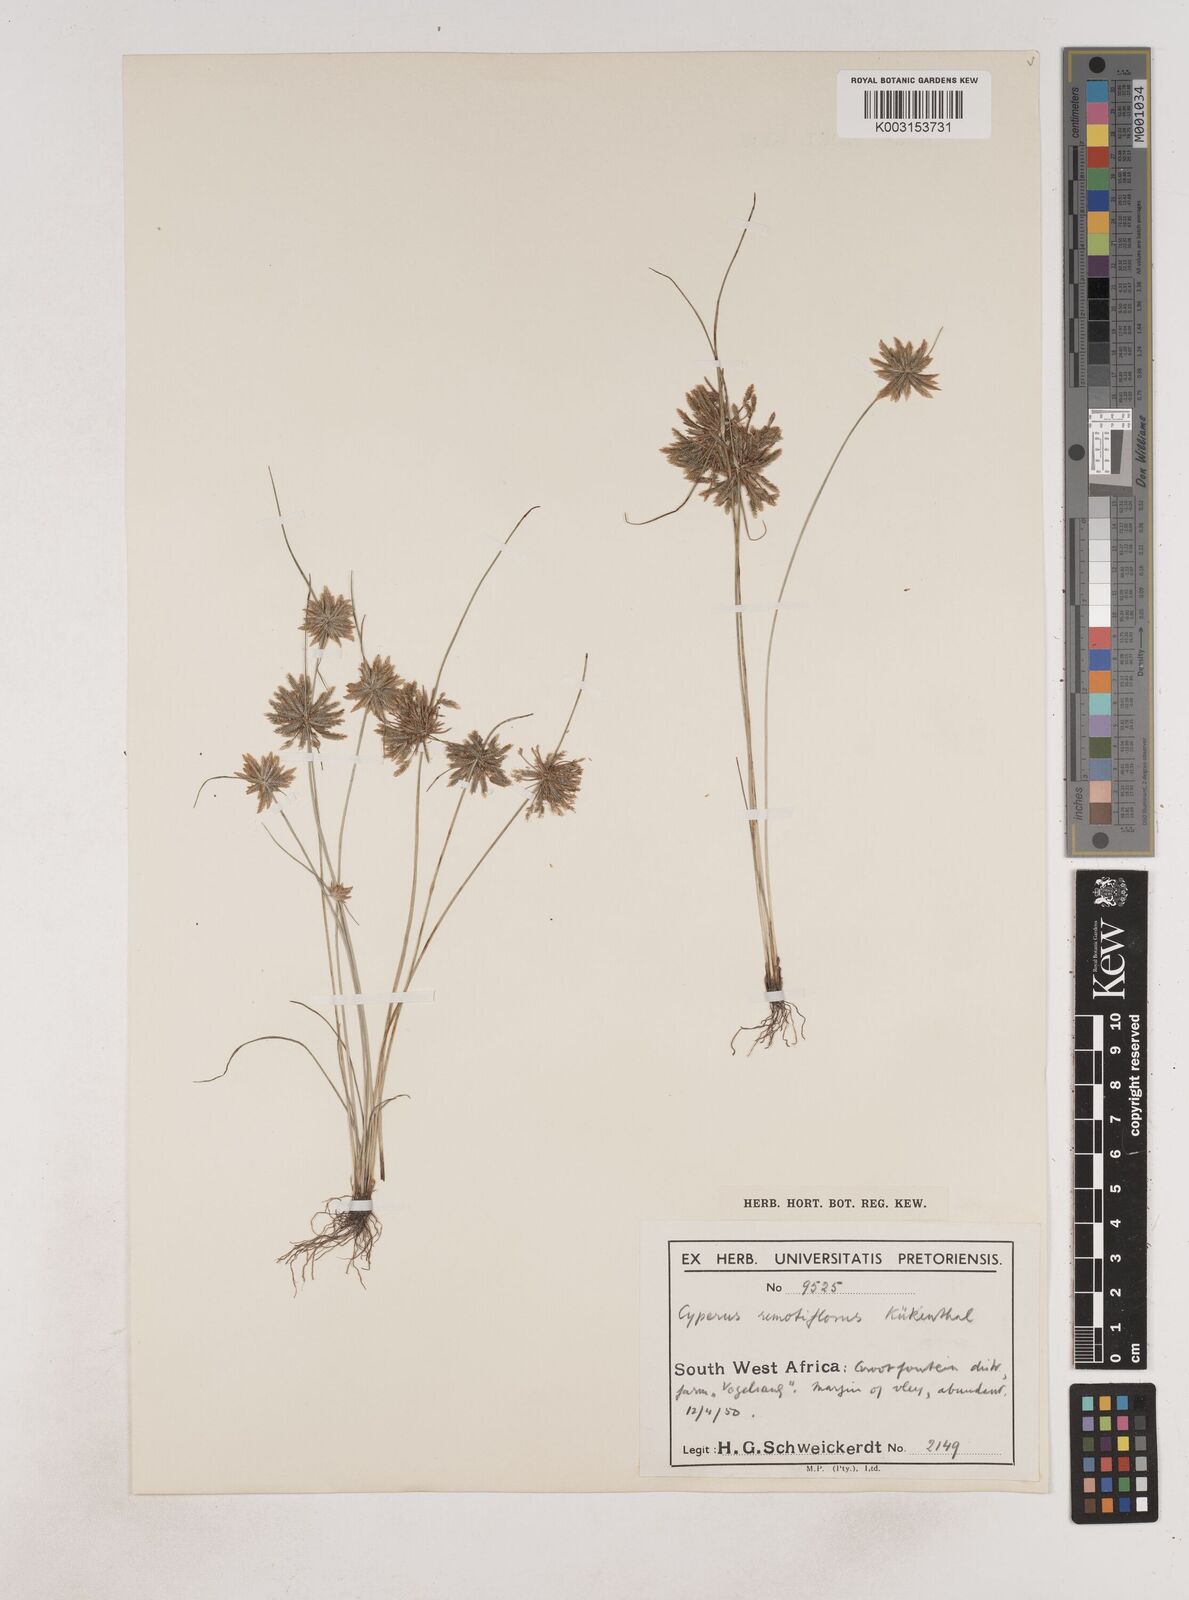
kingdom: Plantae
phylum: Tracheophyta
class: Liliopsida
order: Poales
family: Cyperaceae
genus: Cyperus
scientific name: Cyperus remotiflorus
